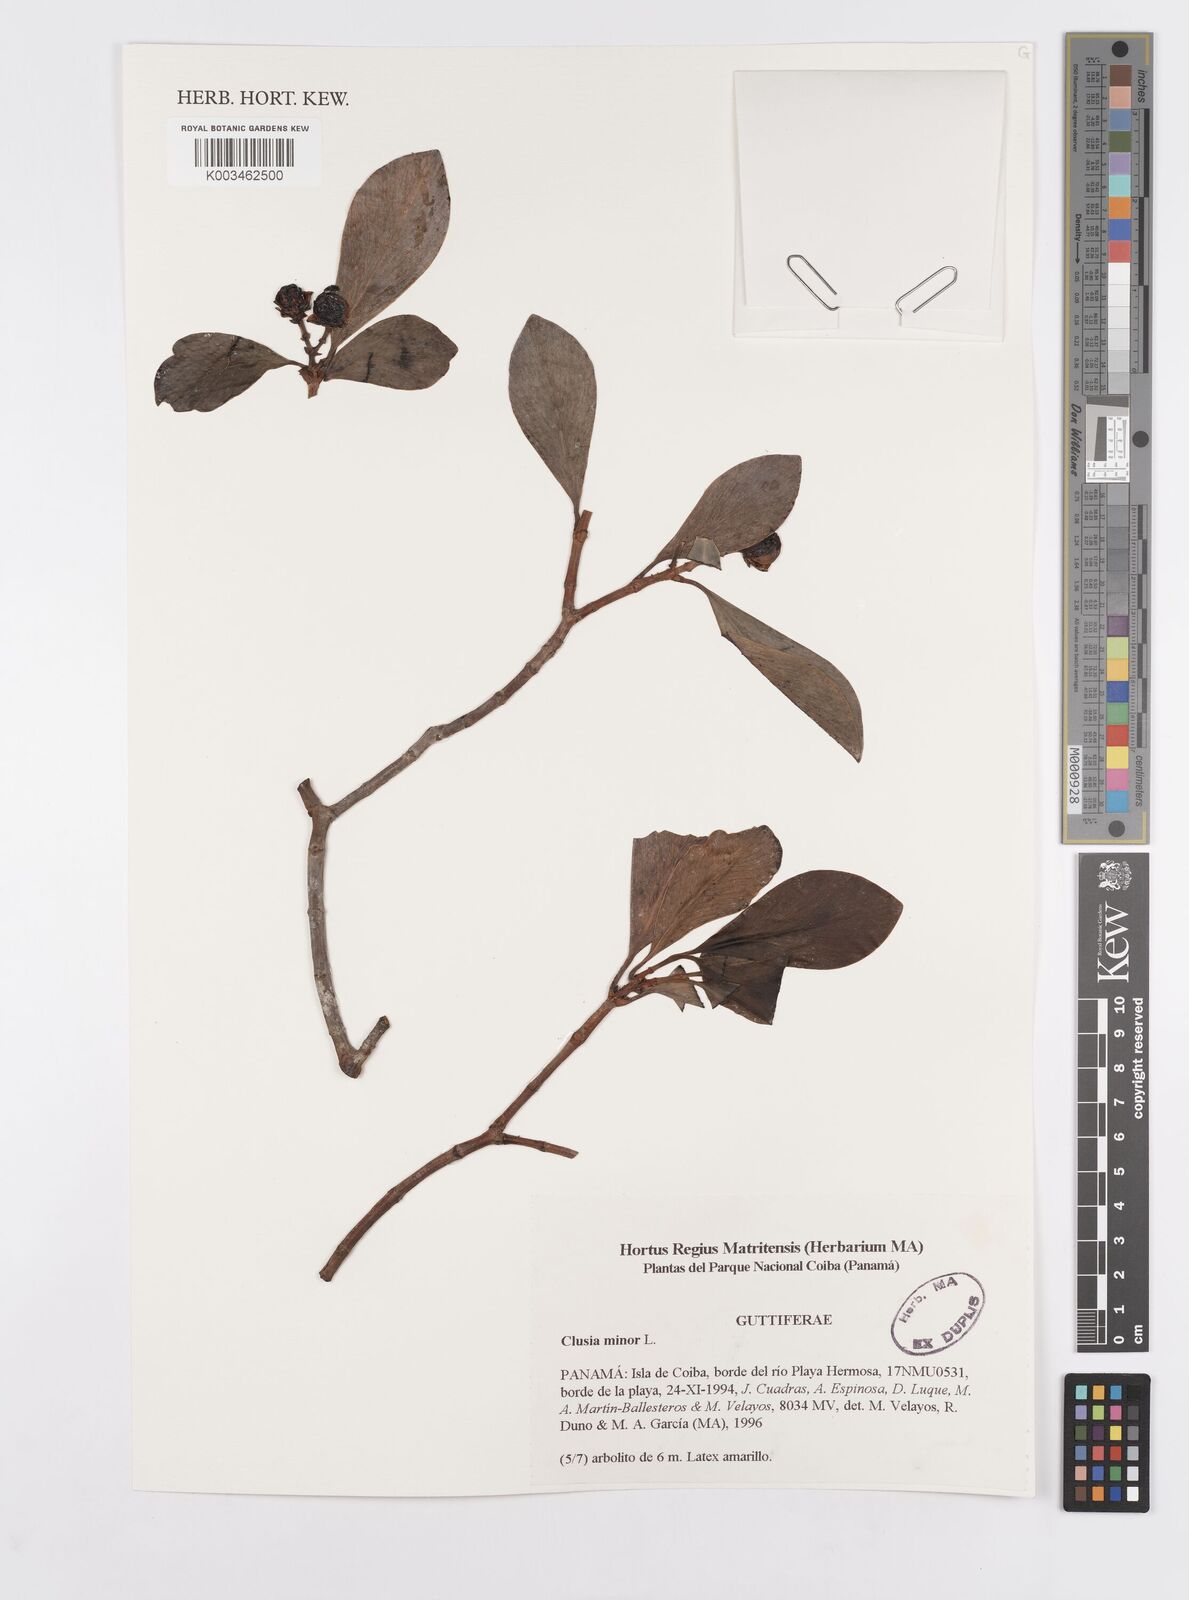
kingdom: Plantae
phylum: Tracheophyta
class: Magnoliopsida
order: Malpighiales
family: Clusiaceae
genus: Clusia
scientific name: Clusia minor
